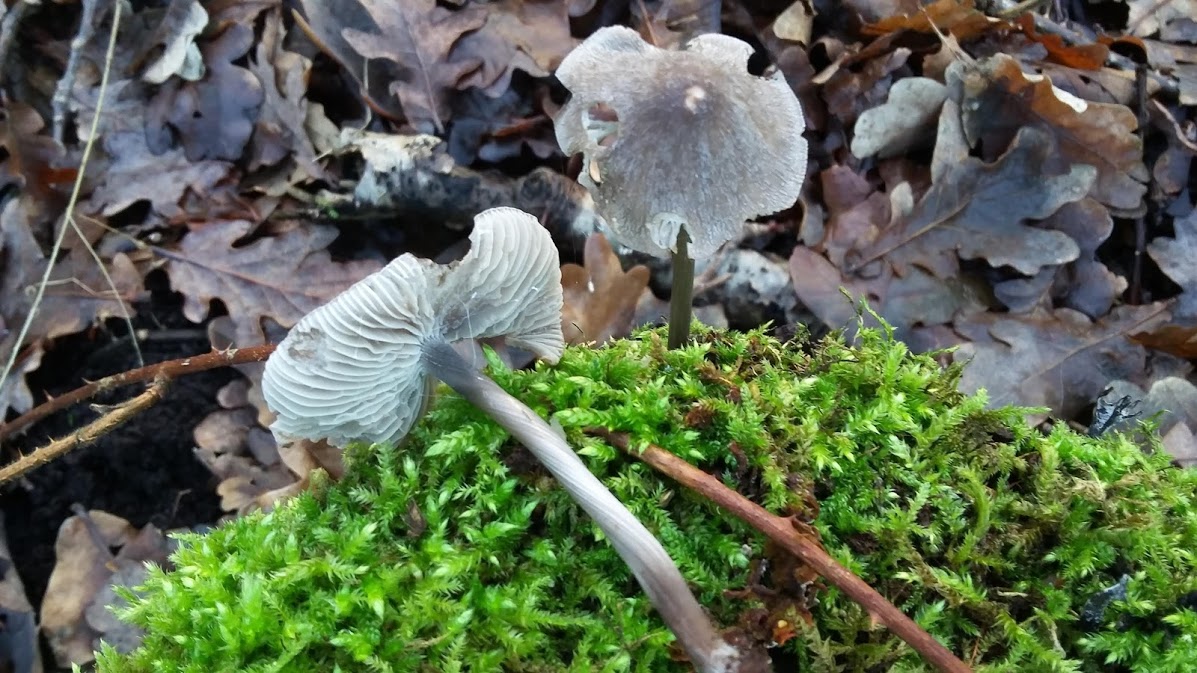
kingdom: Fungi
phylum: Basidiomycota
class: Agaricomycetes
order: Agaricales
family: Mycenaceae
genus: Mycena
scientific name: Mycena galericulata
